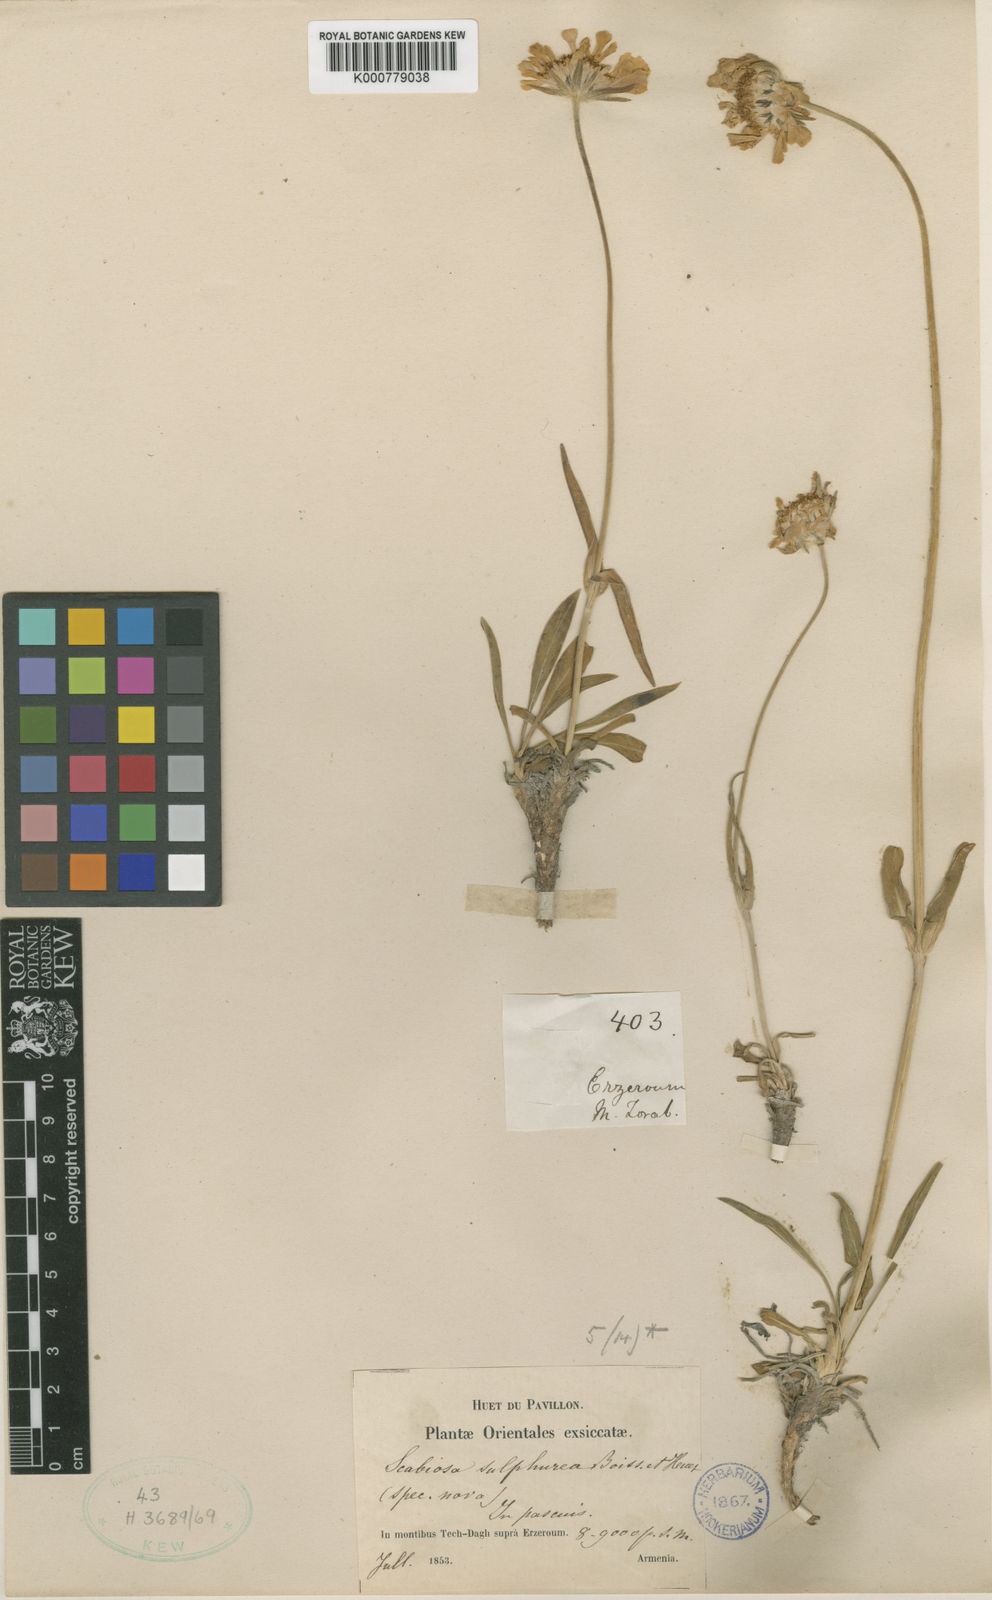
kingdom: Plantae
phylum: Tracheophyta
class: Magnoliopsida
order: Dipsacales
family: Caprifoliaceae
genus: Lomelosia
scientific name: Lomelosia sulphurea
